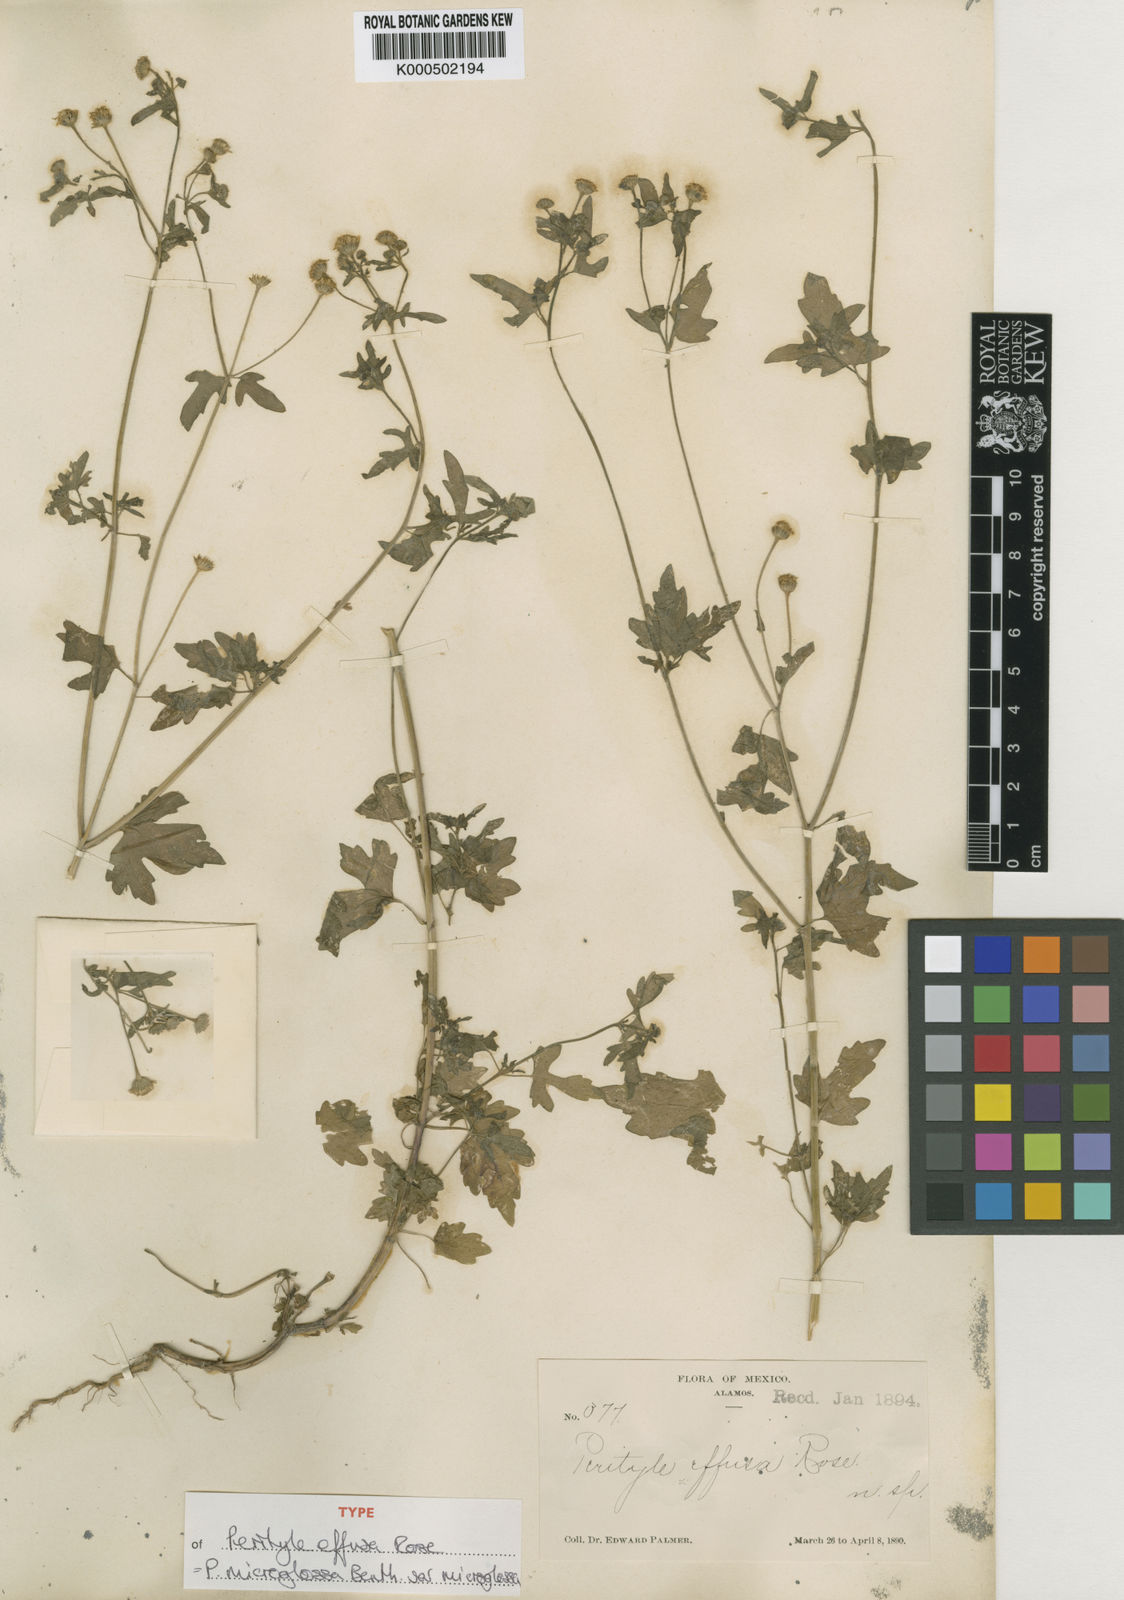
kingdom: Plantae
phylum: Tracheophyta
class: Magnoliopsida
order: Asterales
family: Asteraceae
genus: Galinsogeopsis
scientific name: Galinsogeopsis spilanthoides
